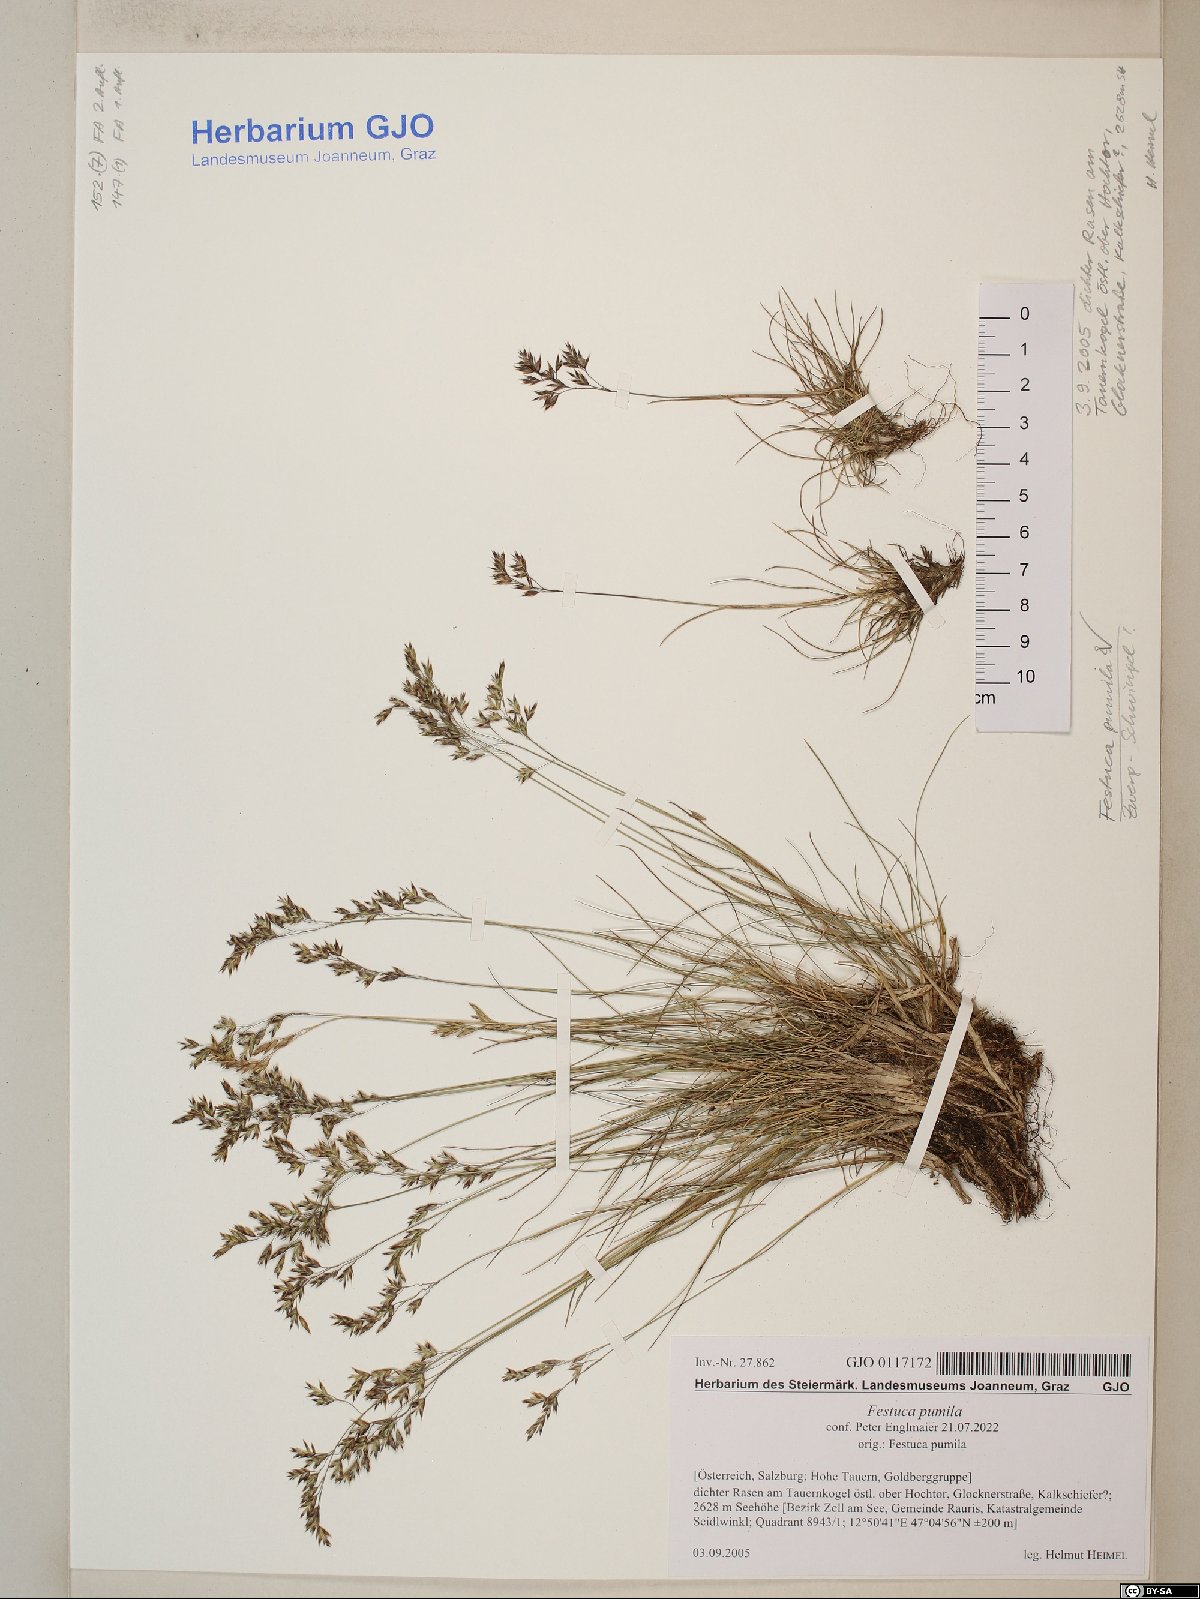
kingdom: Plantae
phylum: Tracheophyta
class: Liliopsida
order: Poales
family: Poaceae
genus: Festuca
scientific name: Festuca quadriflora
